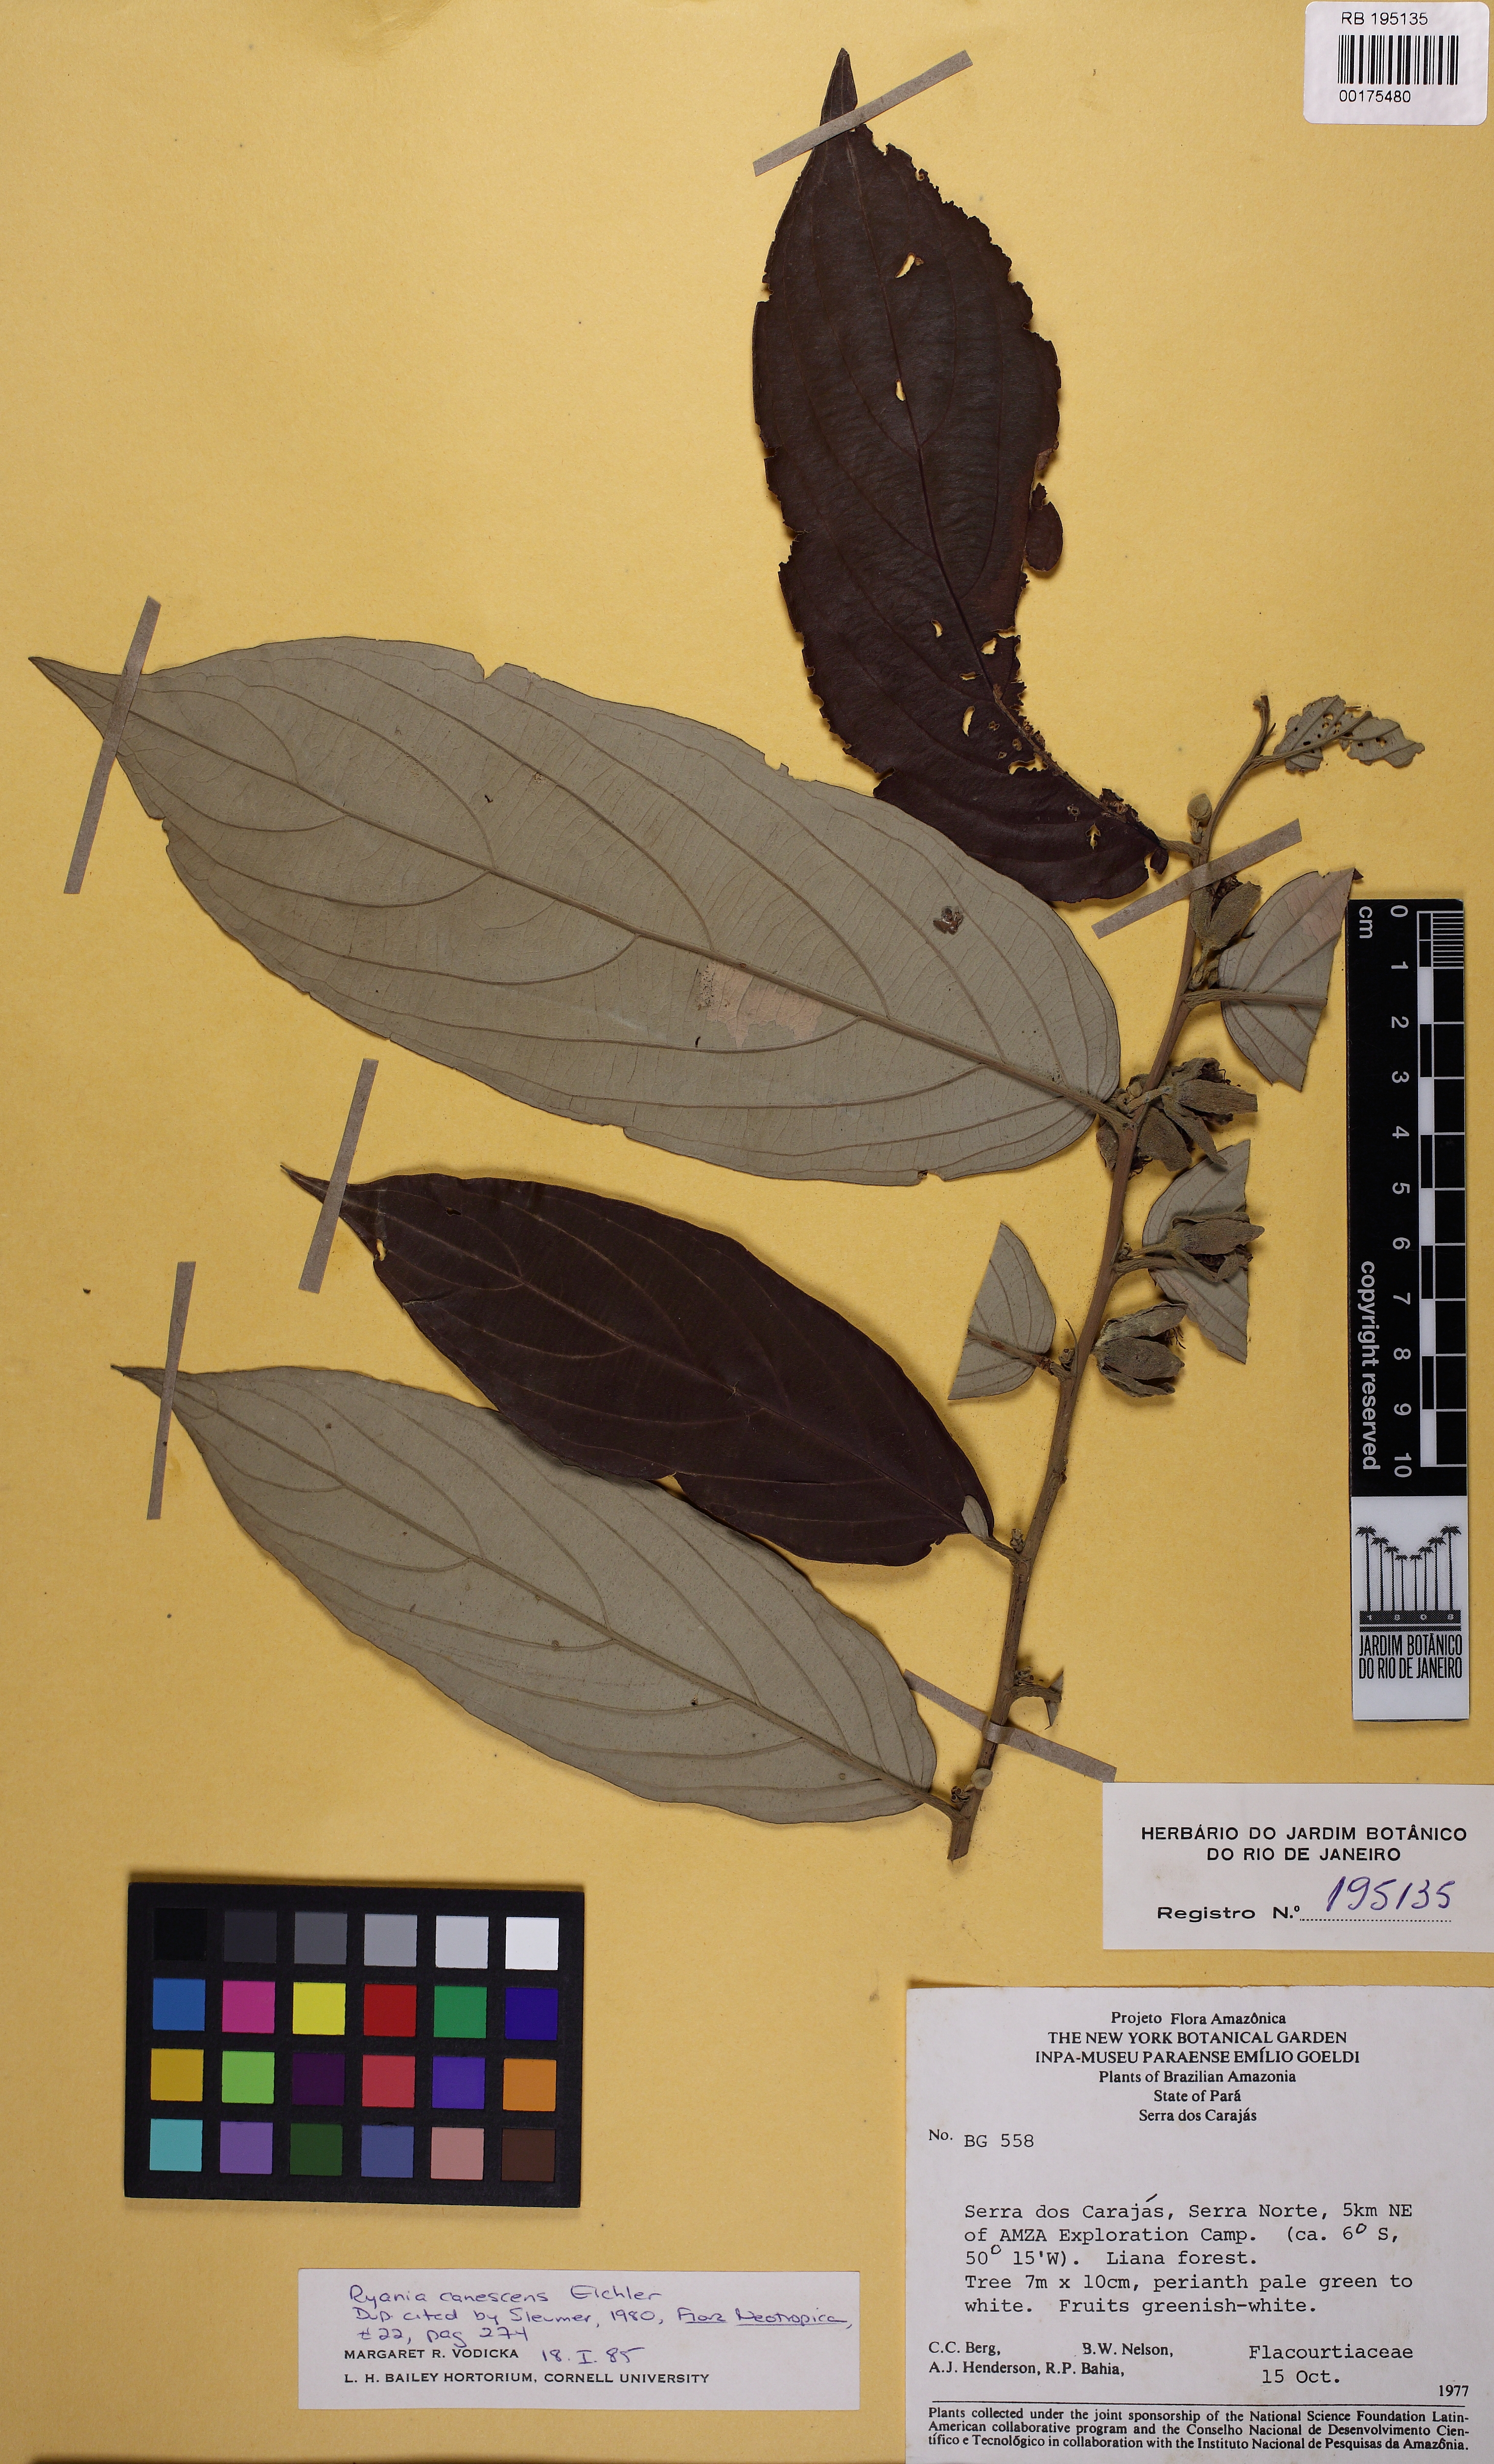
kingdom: Plantae
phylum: Tracheophyta
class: Magnoliopsida
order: Malpighiales
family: Salicaceae
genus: Ryania
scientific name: Ryania canescens
